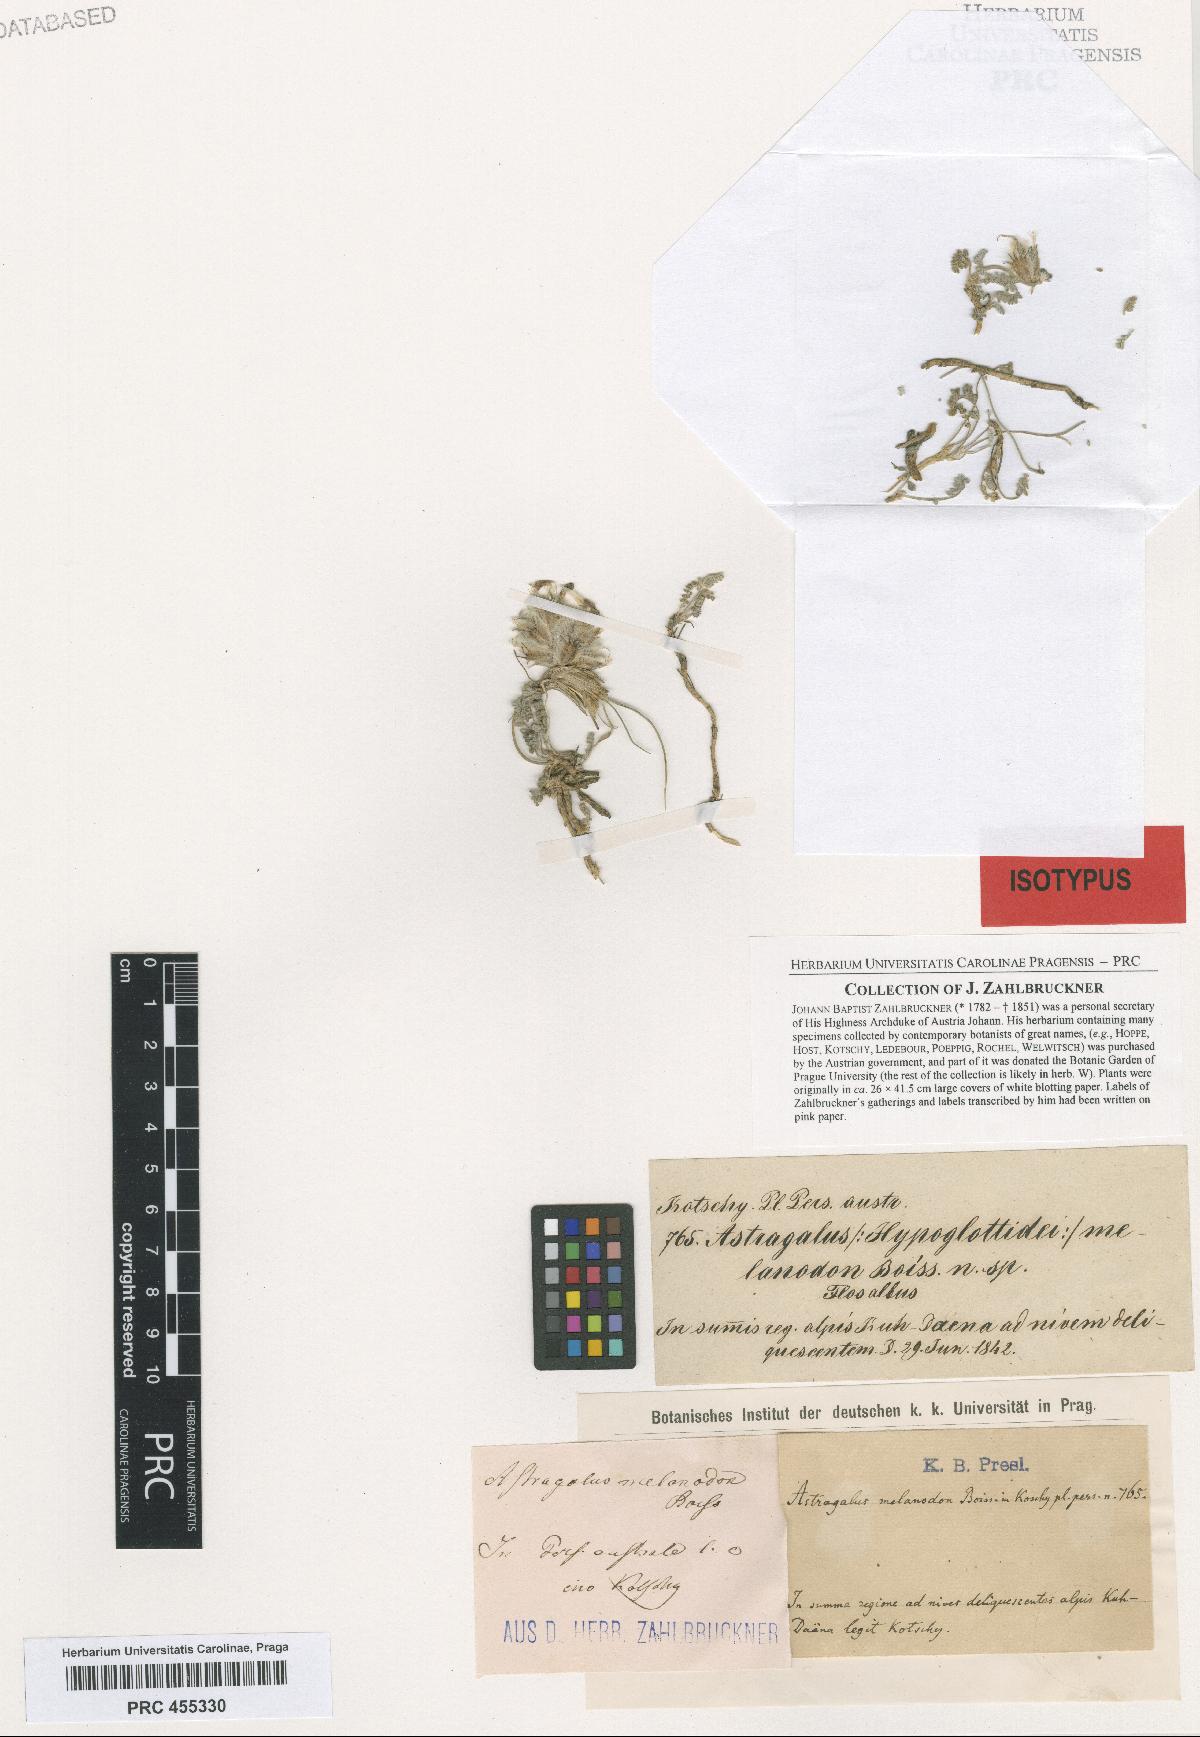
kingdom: Plantae
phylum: Tracheophyta
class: Magnoliopsida
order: Fabales
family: Fabaceae
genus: Astragalus
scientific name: Astragalus melanodon
